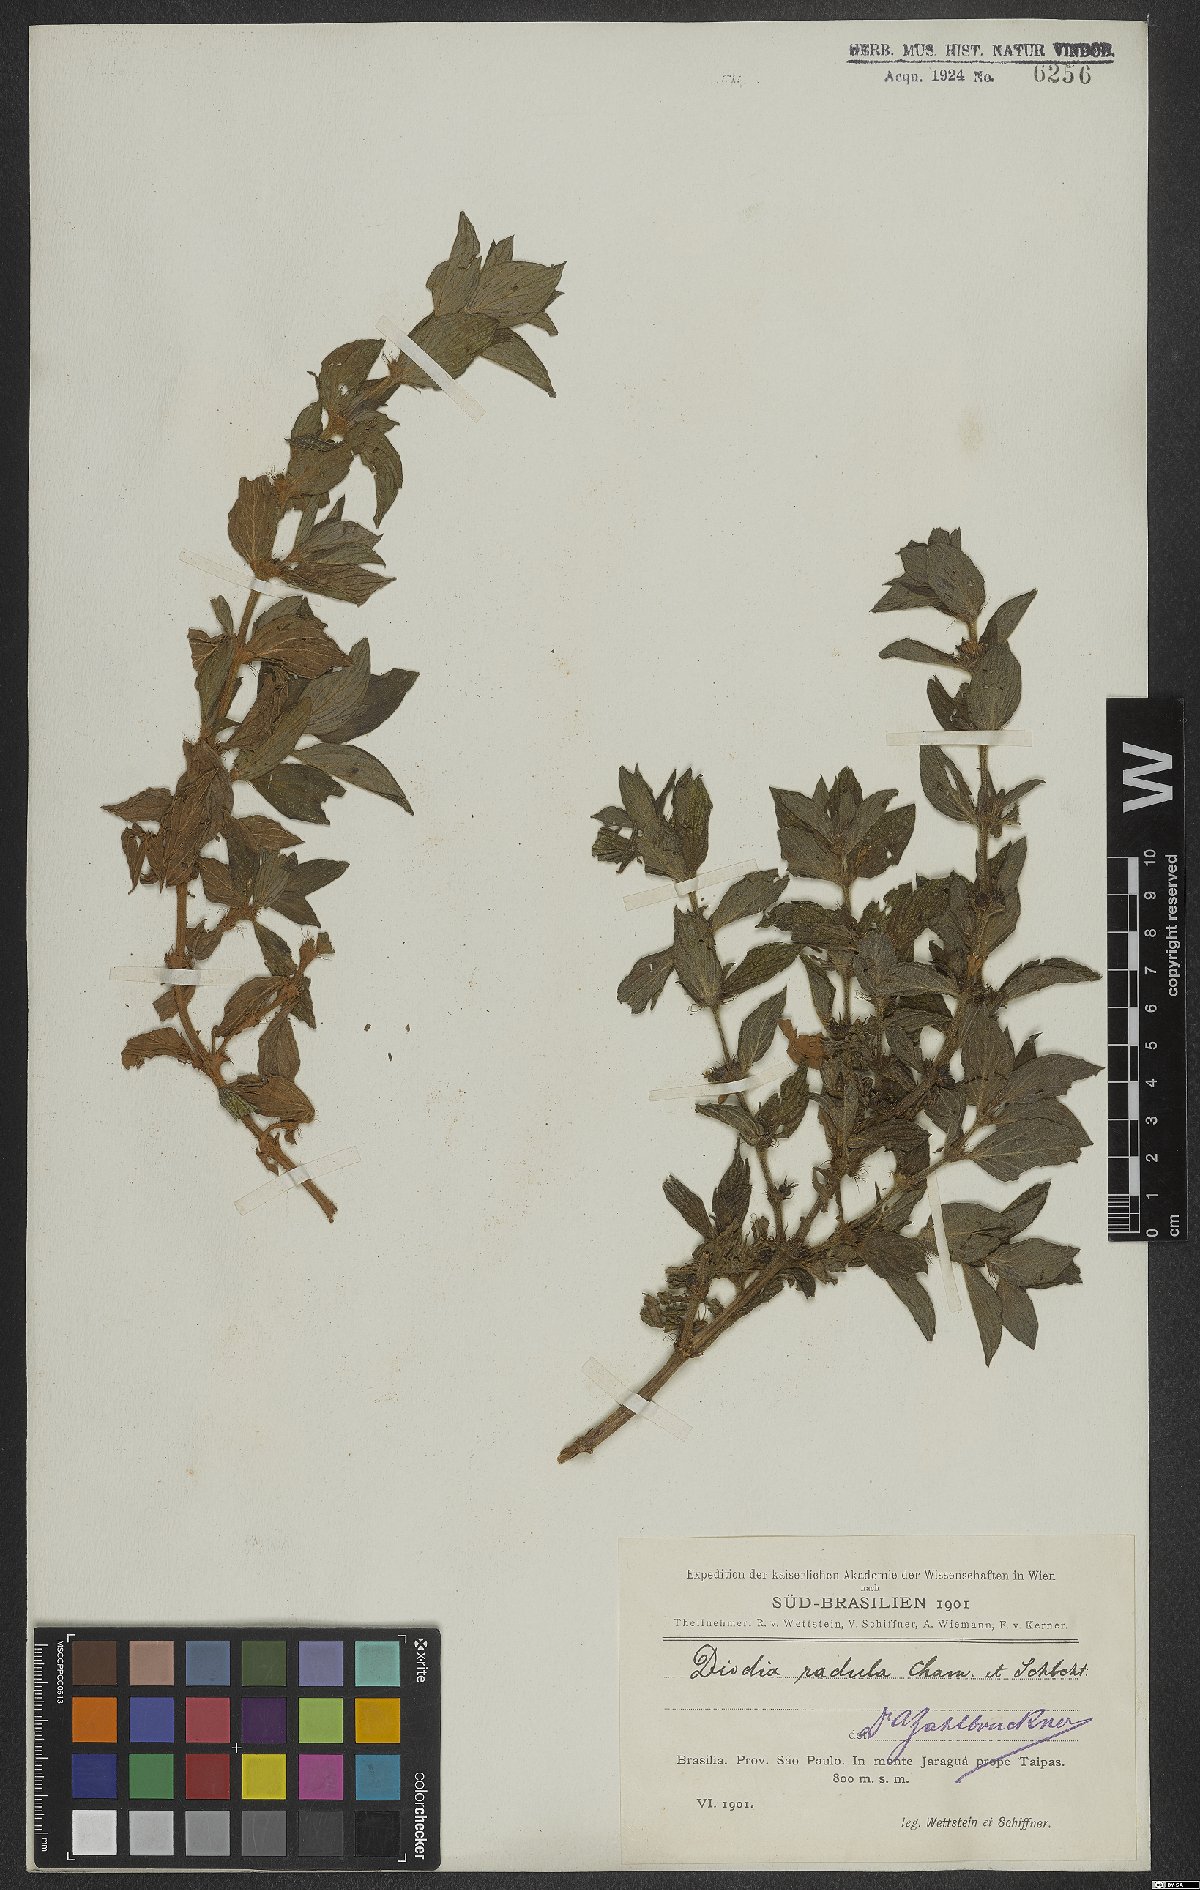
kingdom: Plantae
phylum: Tracheophyta
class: Magnoliopsida
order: Gentianales
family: Rubiaceae
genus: Hexasepalum
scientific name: Hexasepalum radulum
